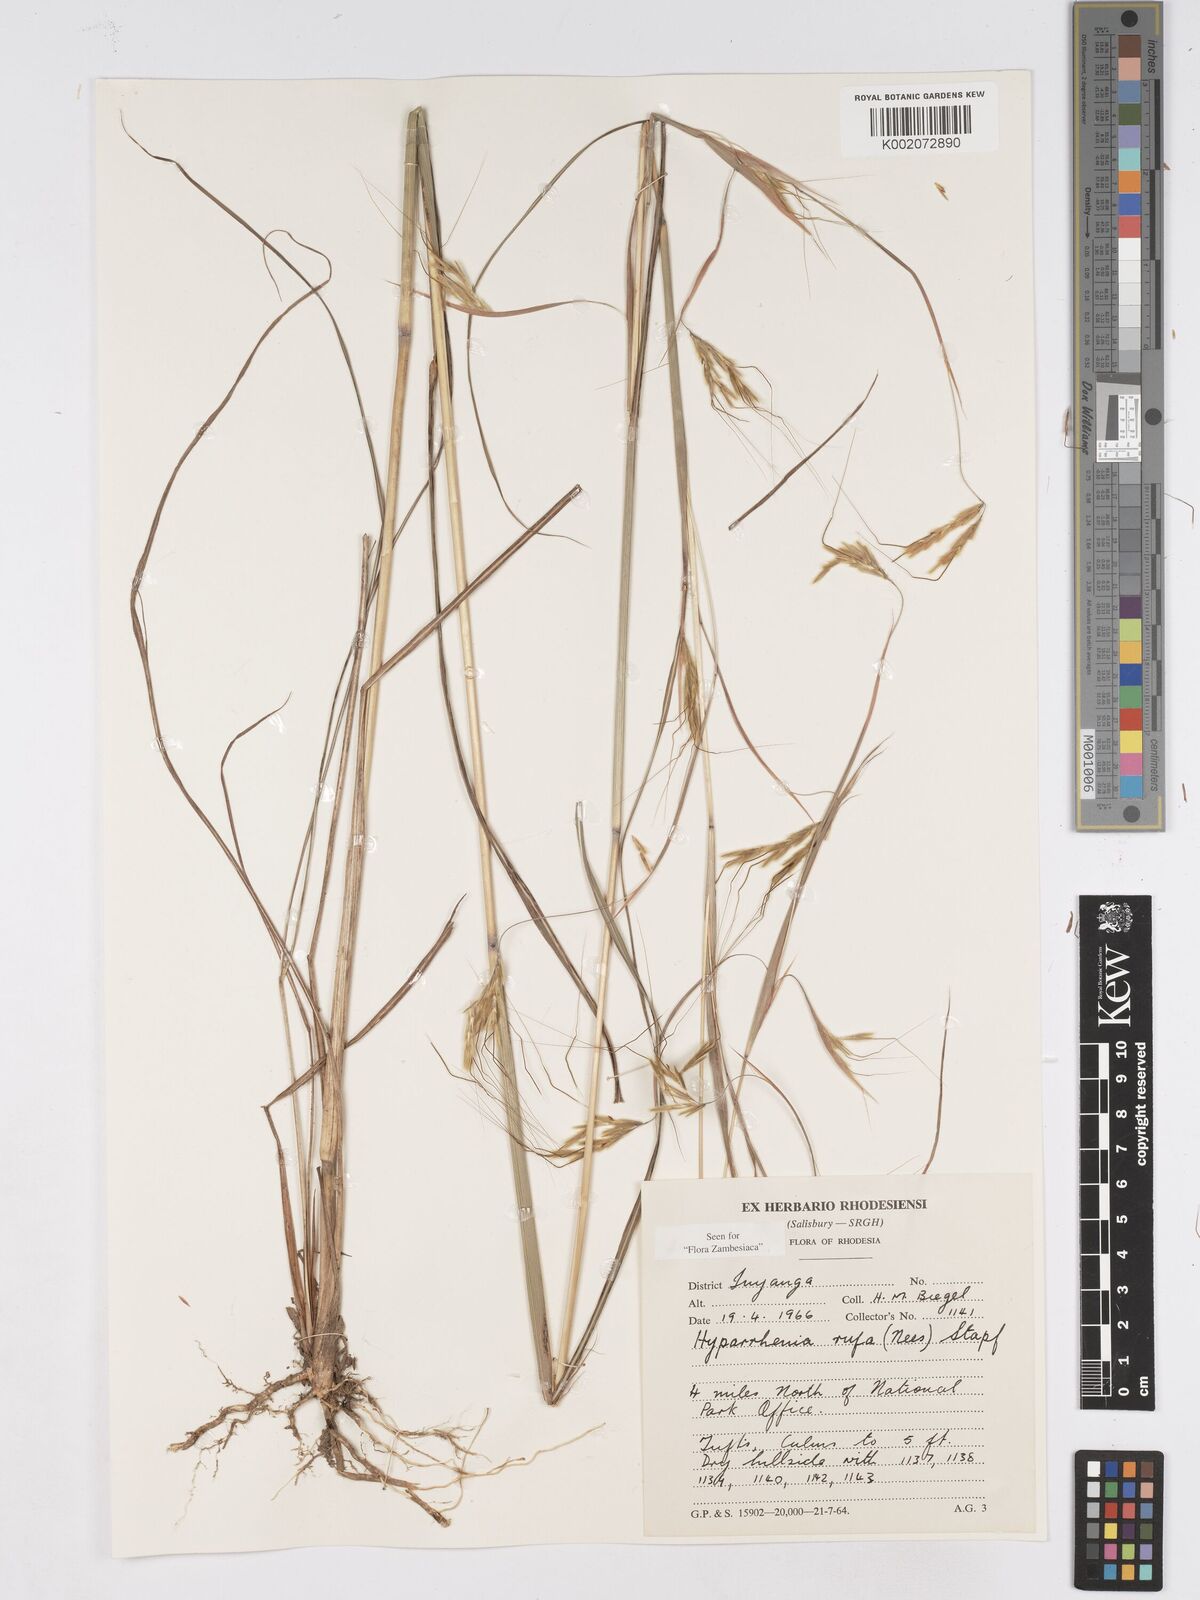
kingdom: Plantae
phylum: Tracheophyta
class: Liliopsida
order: Poales
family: Poaceae
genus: Hyparrhenia
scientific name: Hyparrhenia rufa
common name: Jaraguagrass
